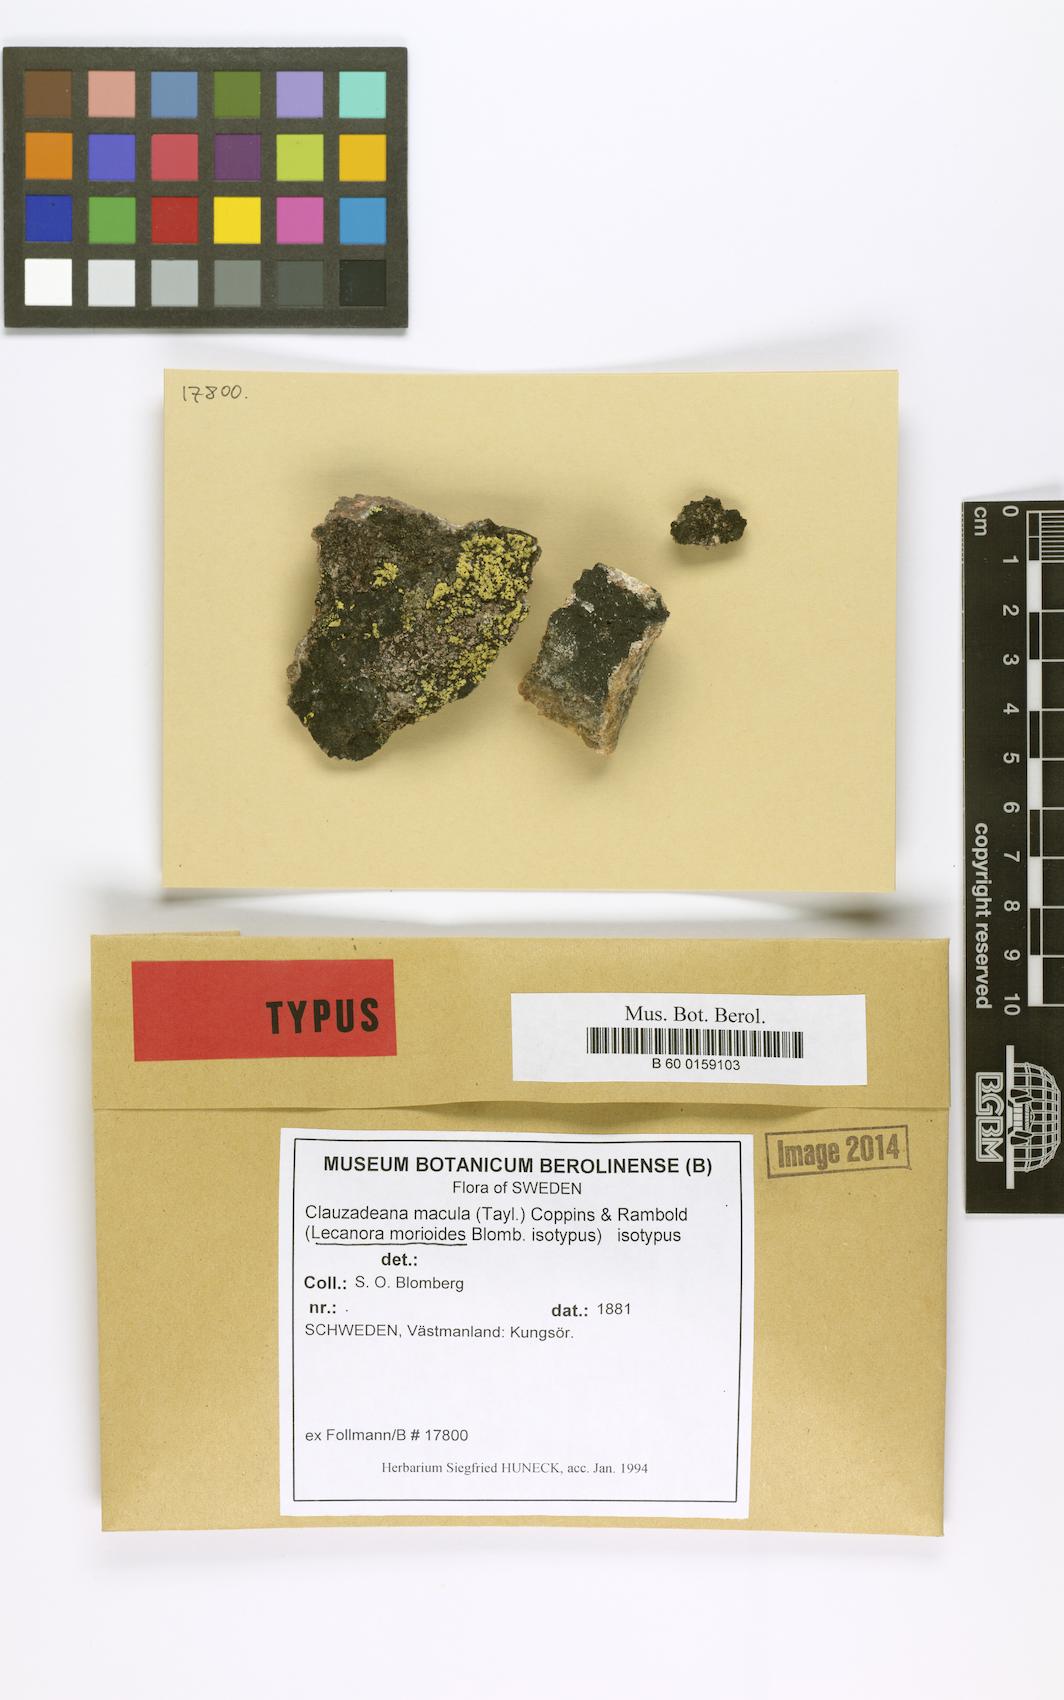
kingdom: Fungi
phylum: Ascomycota
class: Lecanoromycetes
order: Lecanorales
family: Lecanoraceae
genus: Clauzadeana
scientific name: Clauzadeana macula
